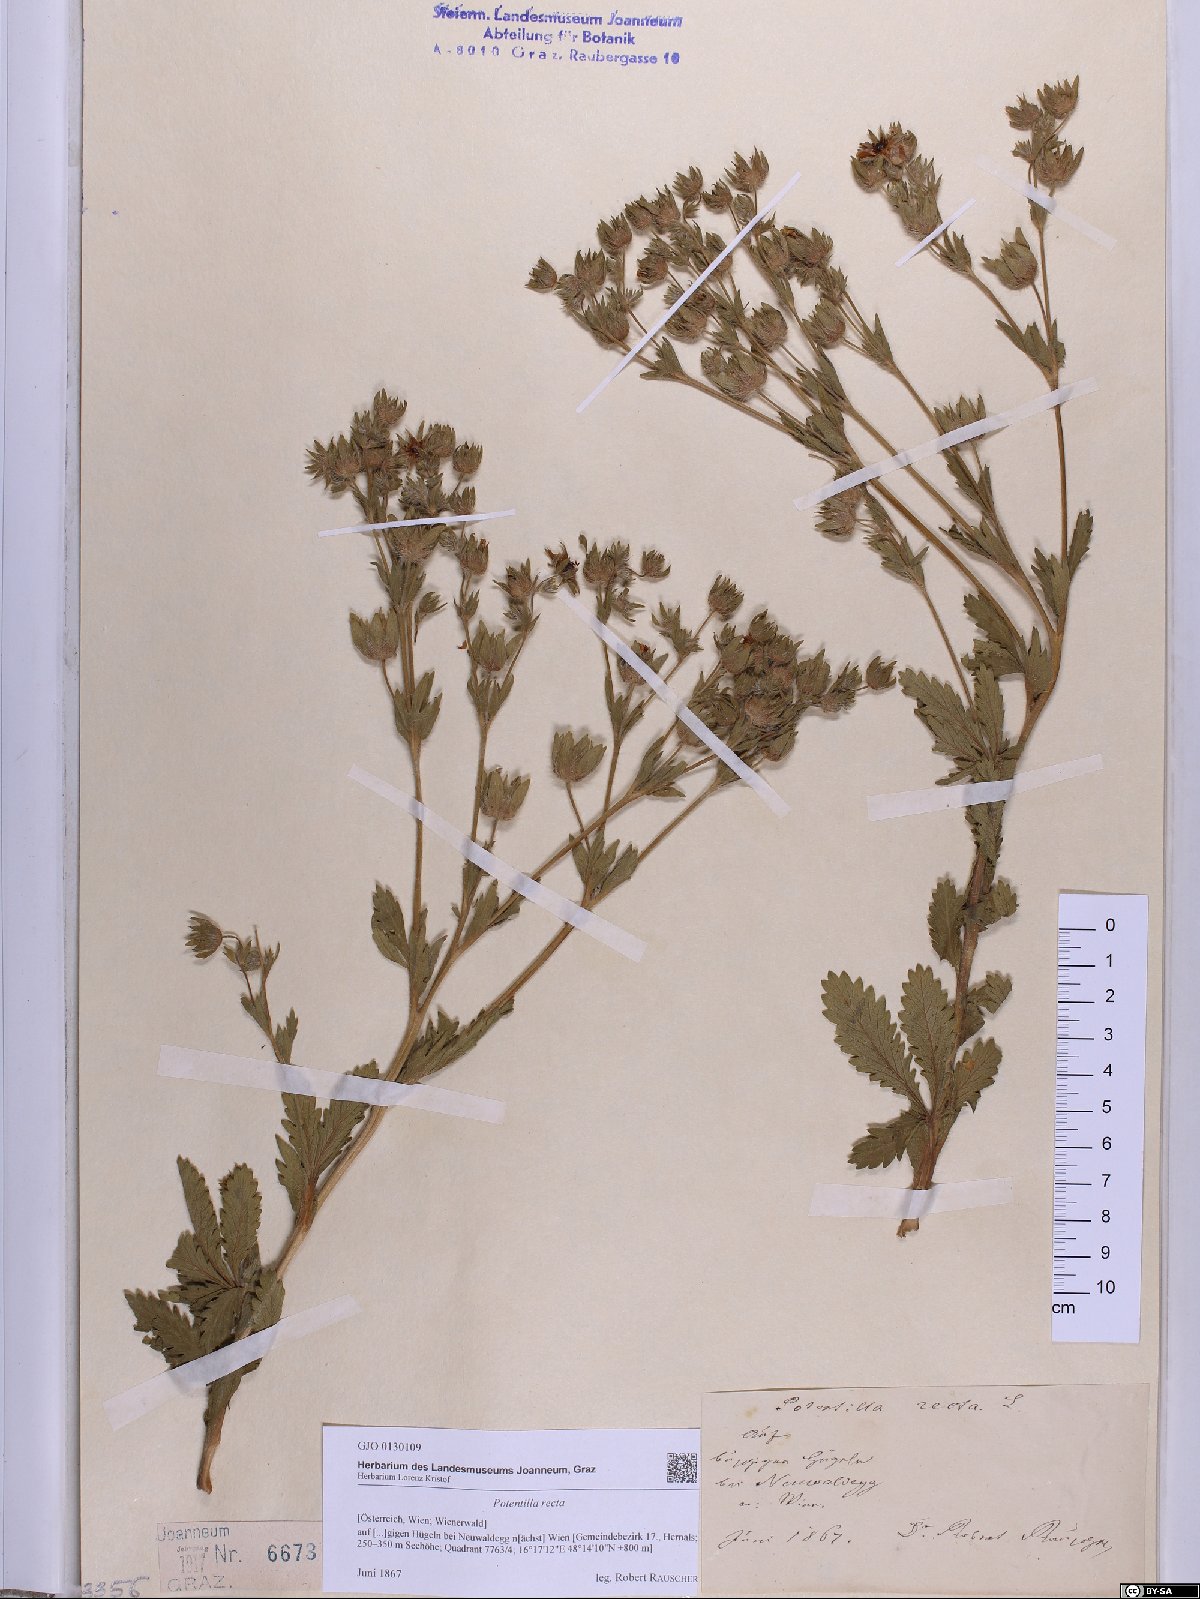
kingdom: Plantae
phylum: Tracheophyta
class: Magnoliopsida
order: Rosales
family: Rosaceae
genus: Potentilla
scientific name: Potentilla recta
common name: Sulphur cinquefoil
